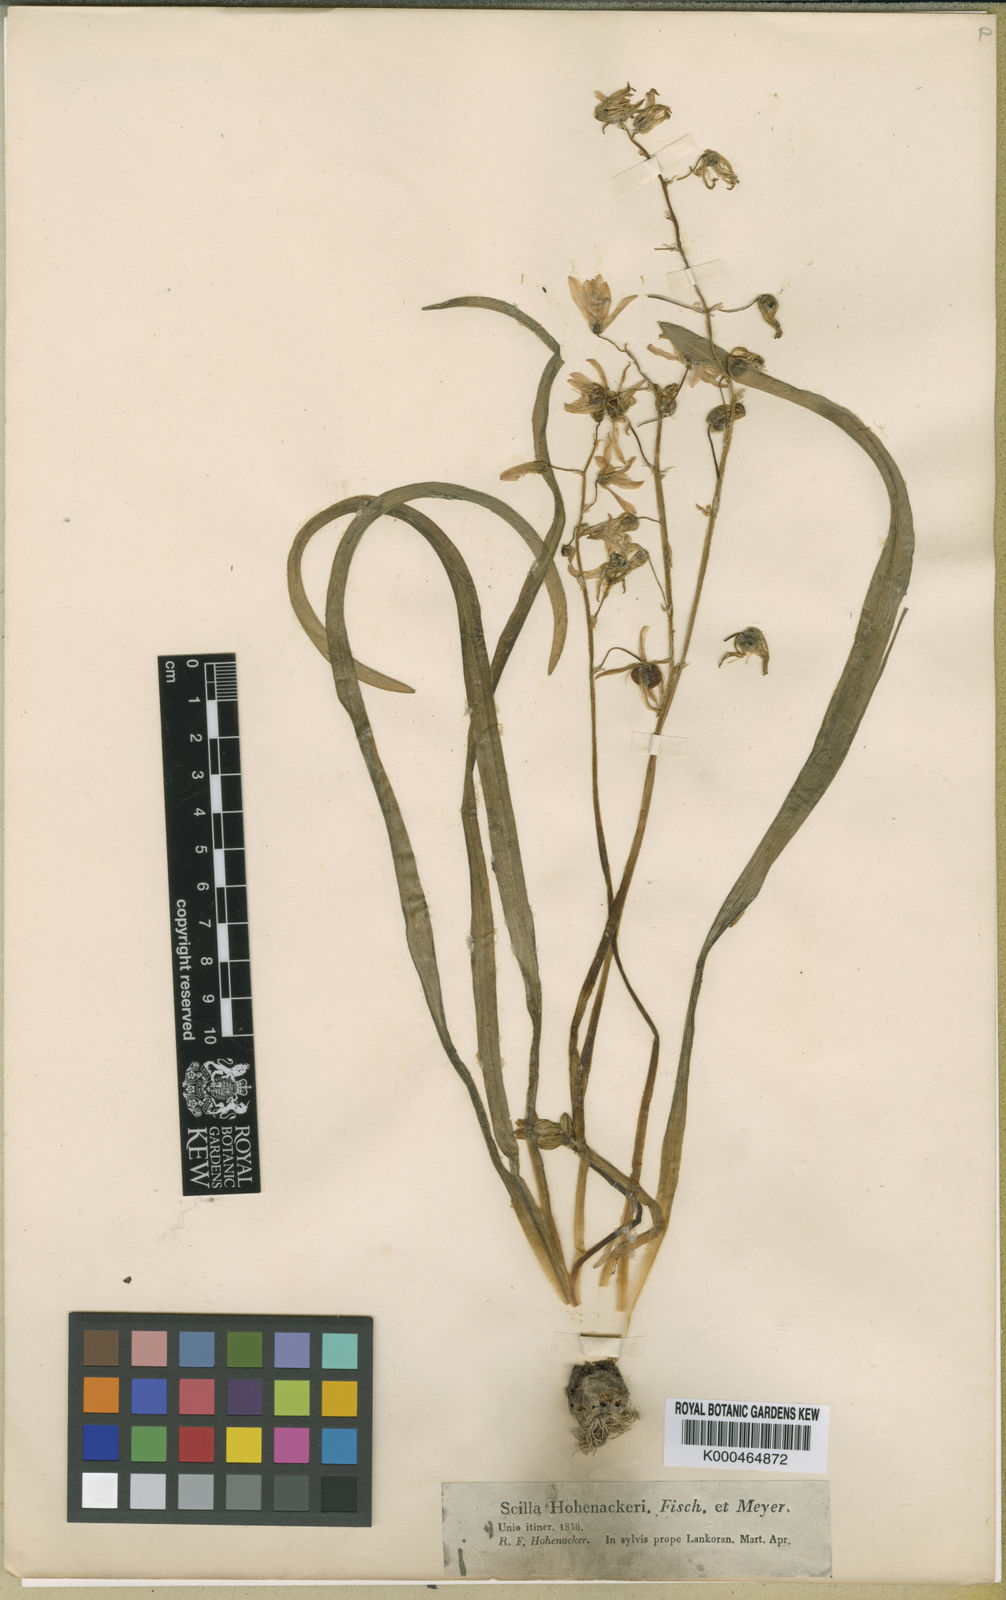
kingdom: Plantae
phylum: Tracheophyta
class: Liliopsida
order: Asparagales
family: Asparagaceae
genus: Fessia
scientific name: Fessia hohenackeri
